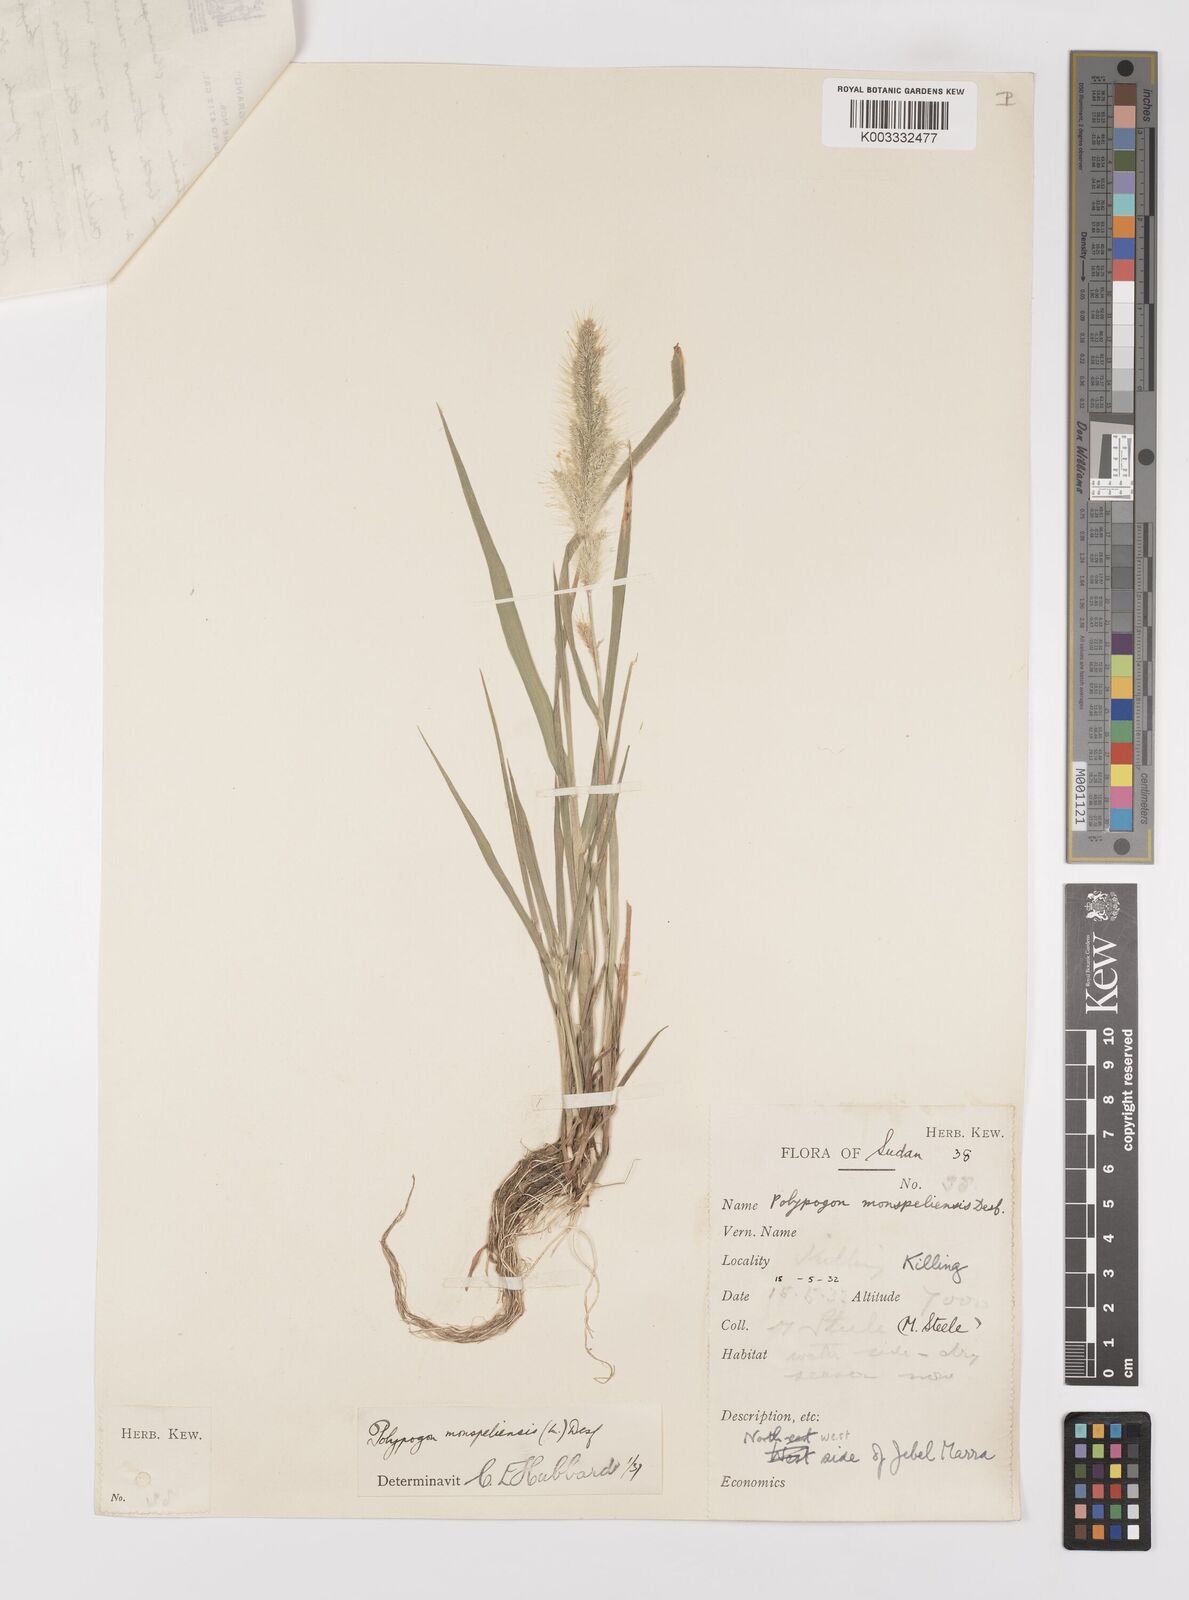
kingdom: Plantae
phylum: Tracheophyta
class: Liliopsida
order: Poales
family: Poaceae
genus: Polypogon
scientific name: Polypogon monspeliensis
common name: Annual rabbitsfoot grass
